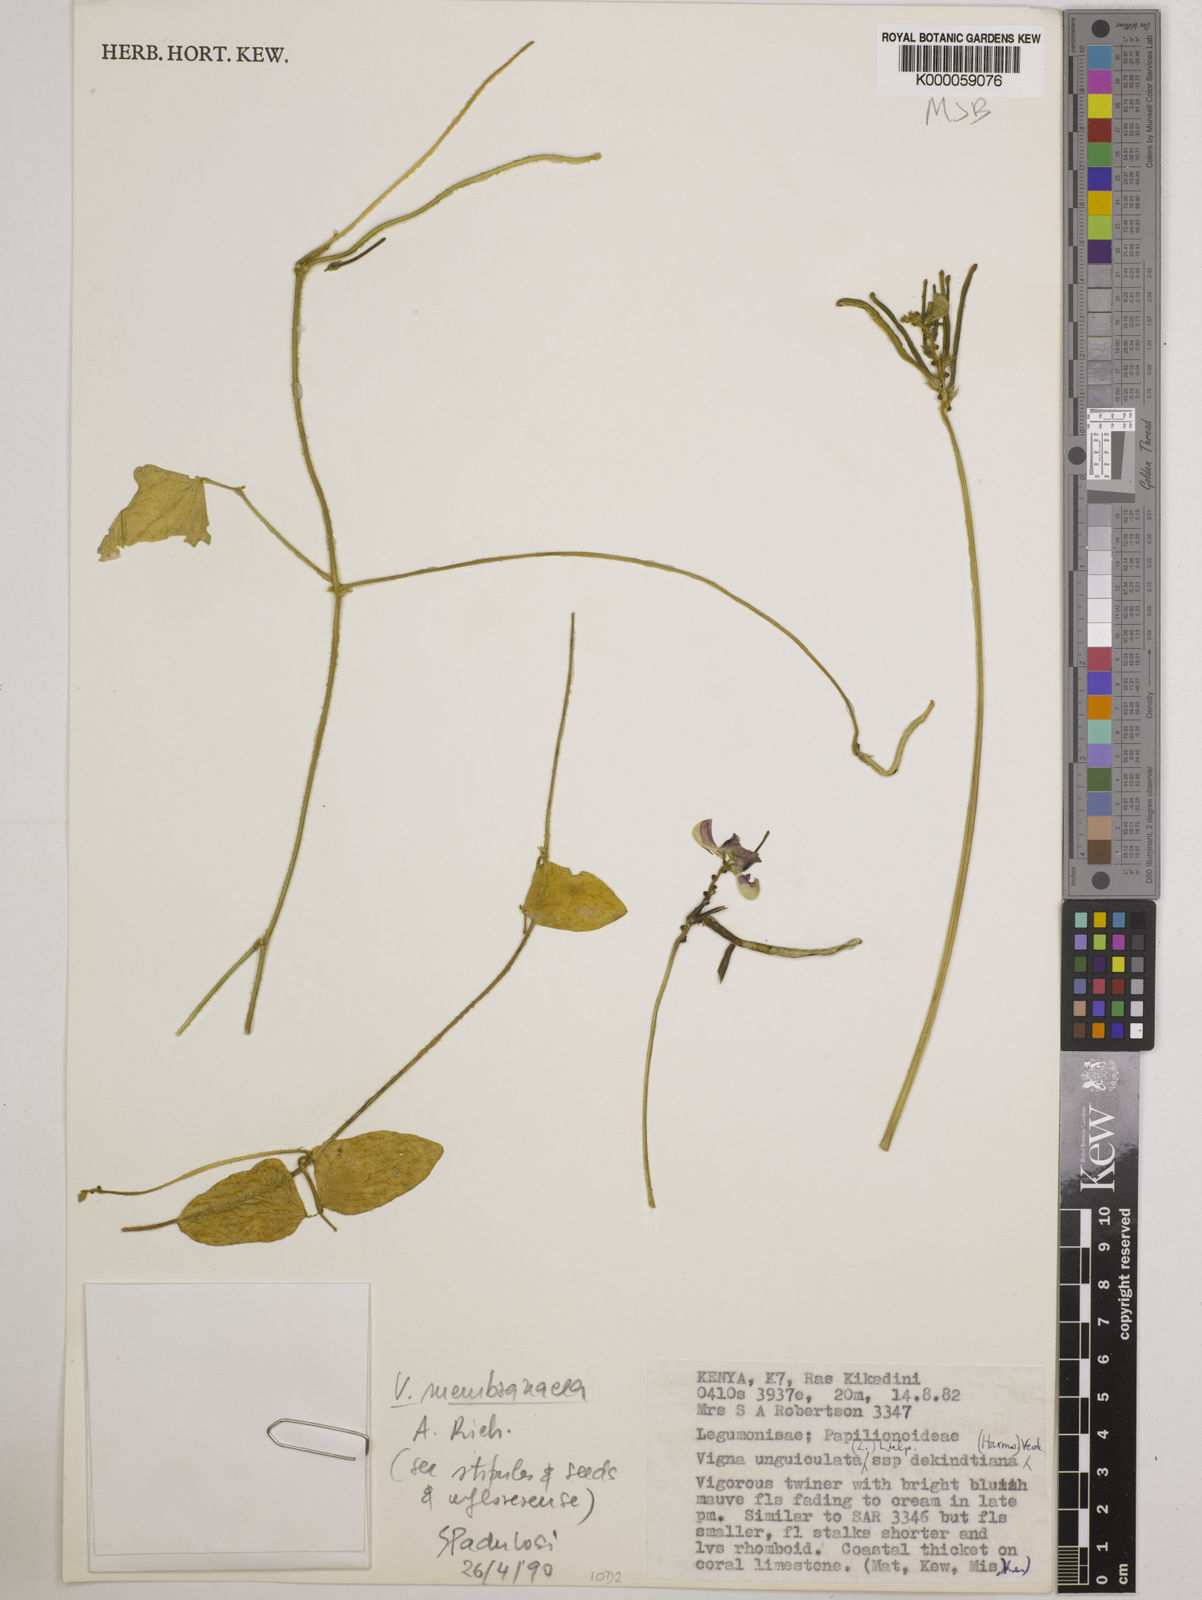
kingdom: Plantae
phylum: Tracheophyta
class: Magnoliopsida
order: Fabales
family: Fabaceae
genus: Vigna
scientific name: Vigna membranacea
